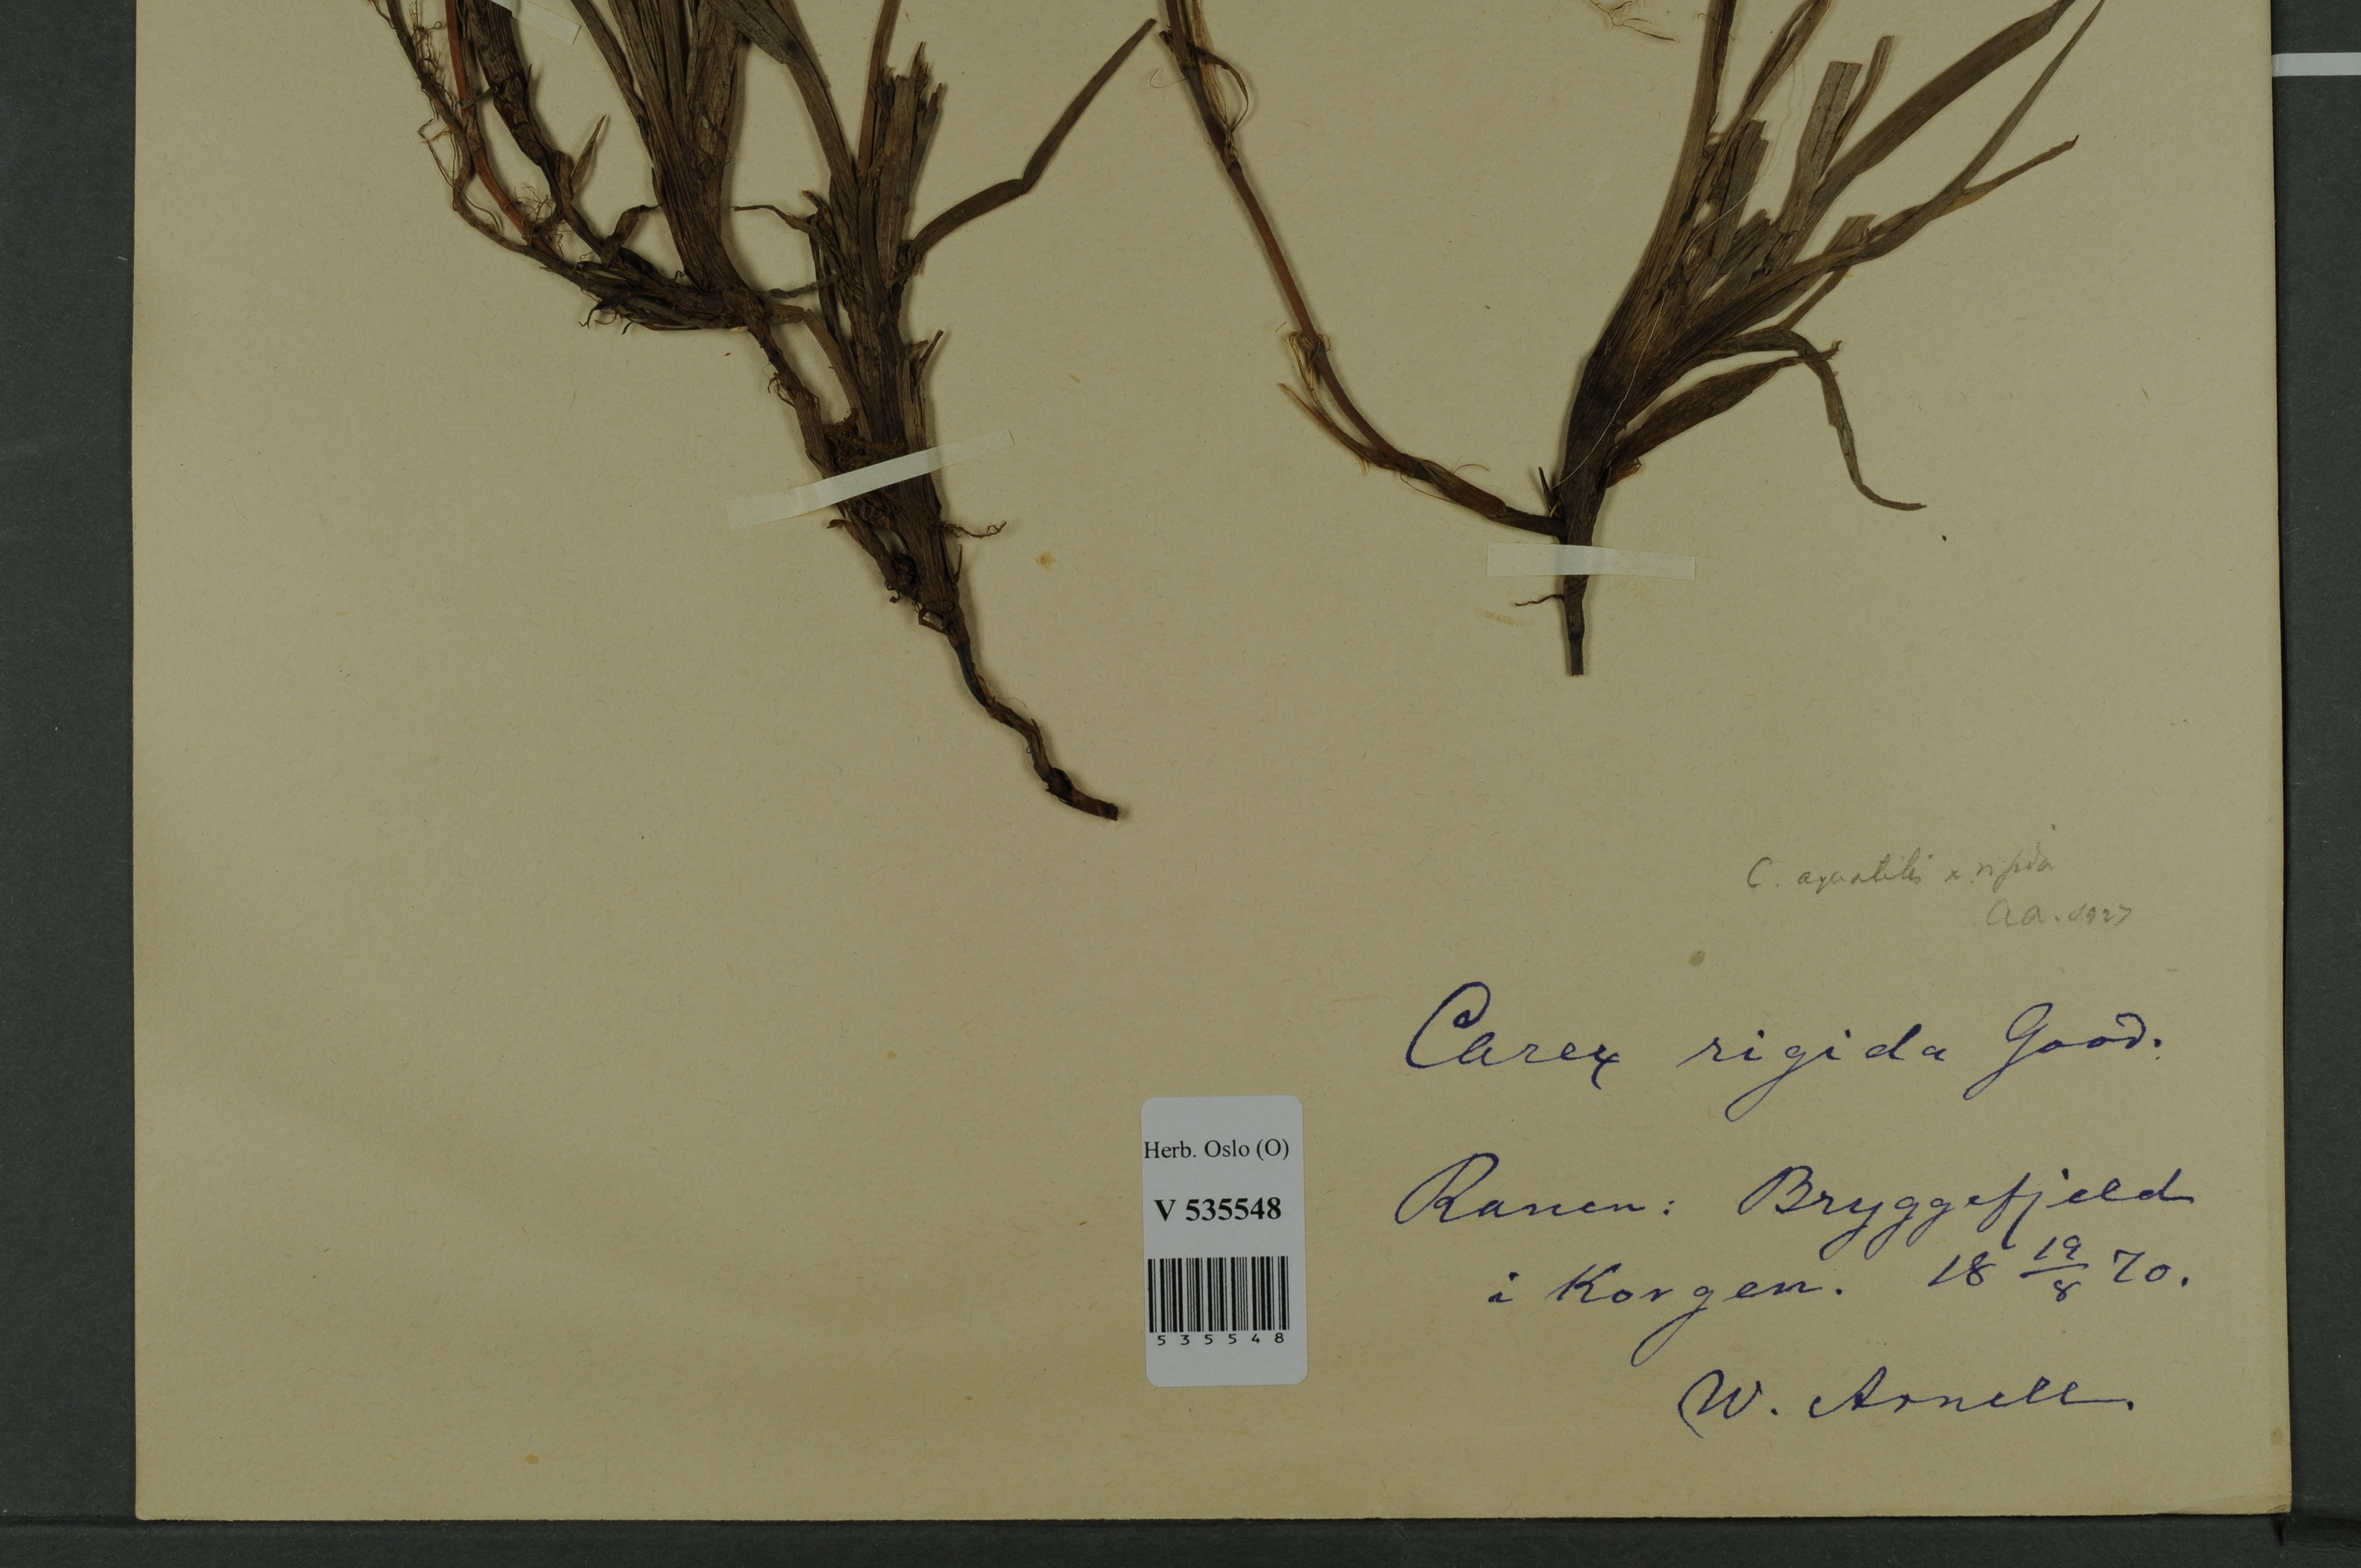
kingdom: Plantae
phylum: Tracheophyta
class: Liliopsida
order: Poales
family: Cyperaceae
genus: Carex
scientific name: Carex
